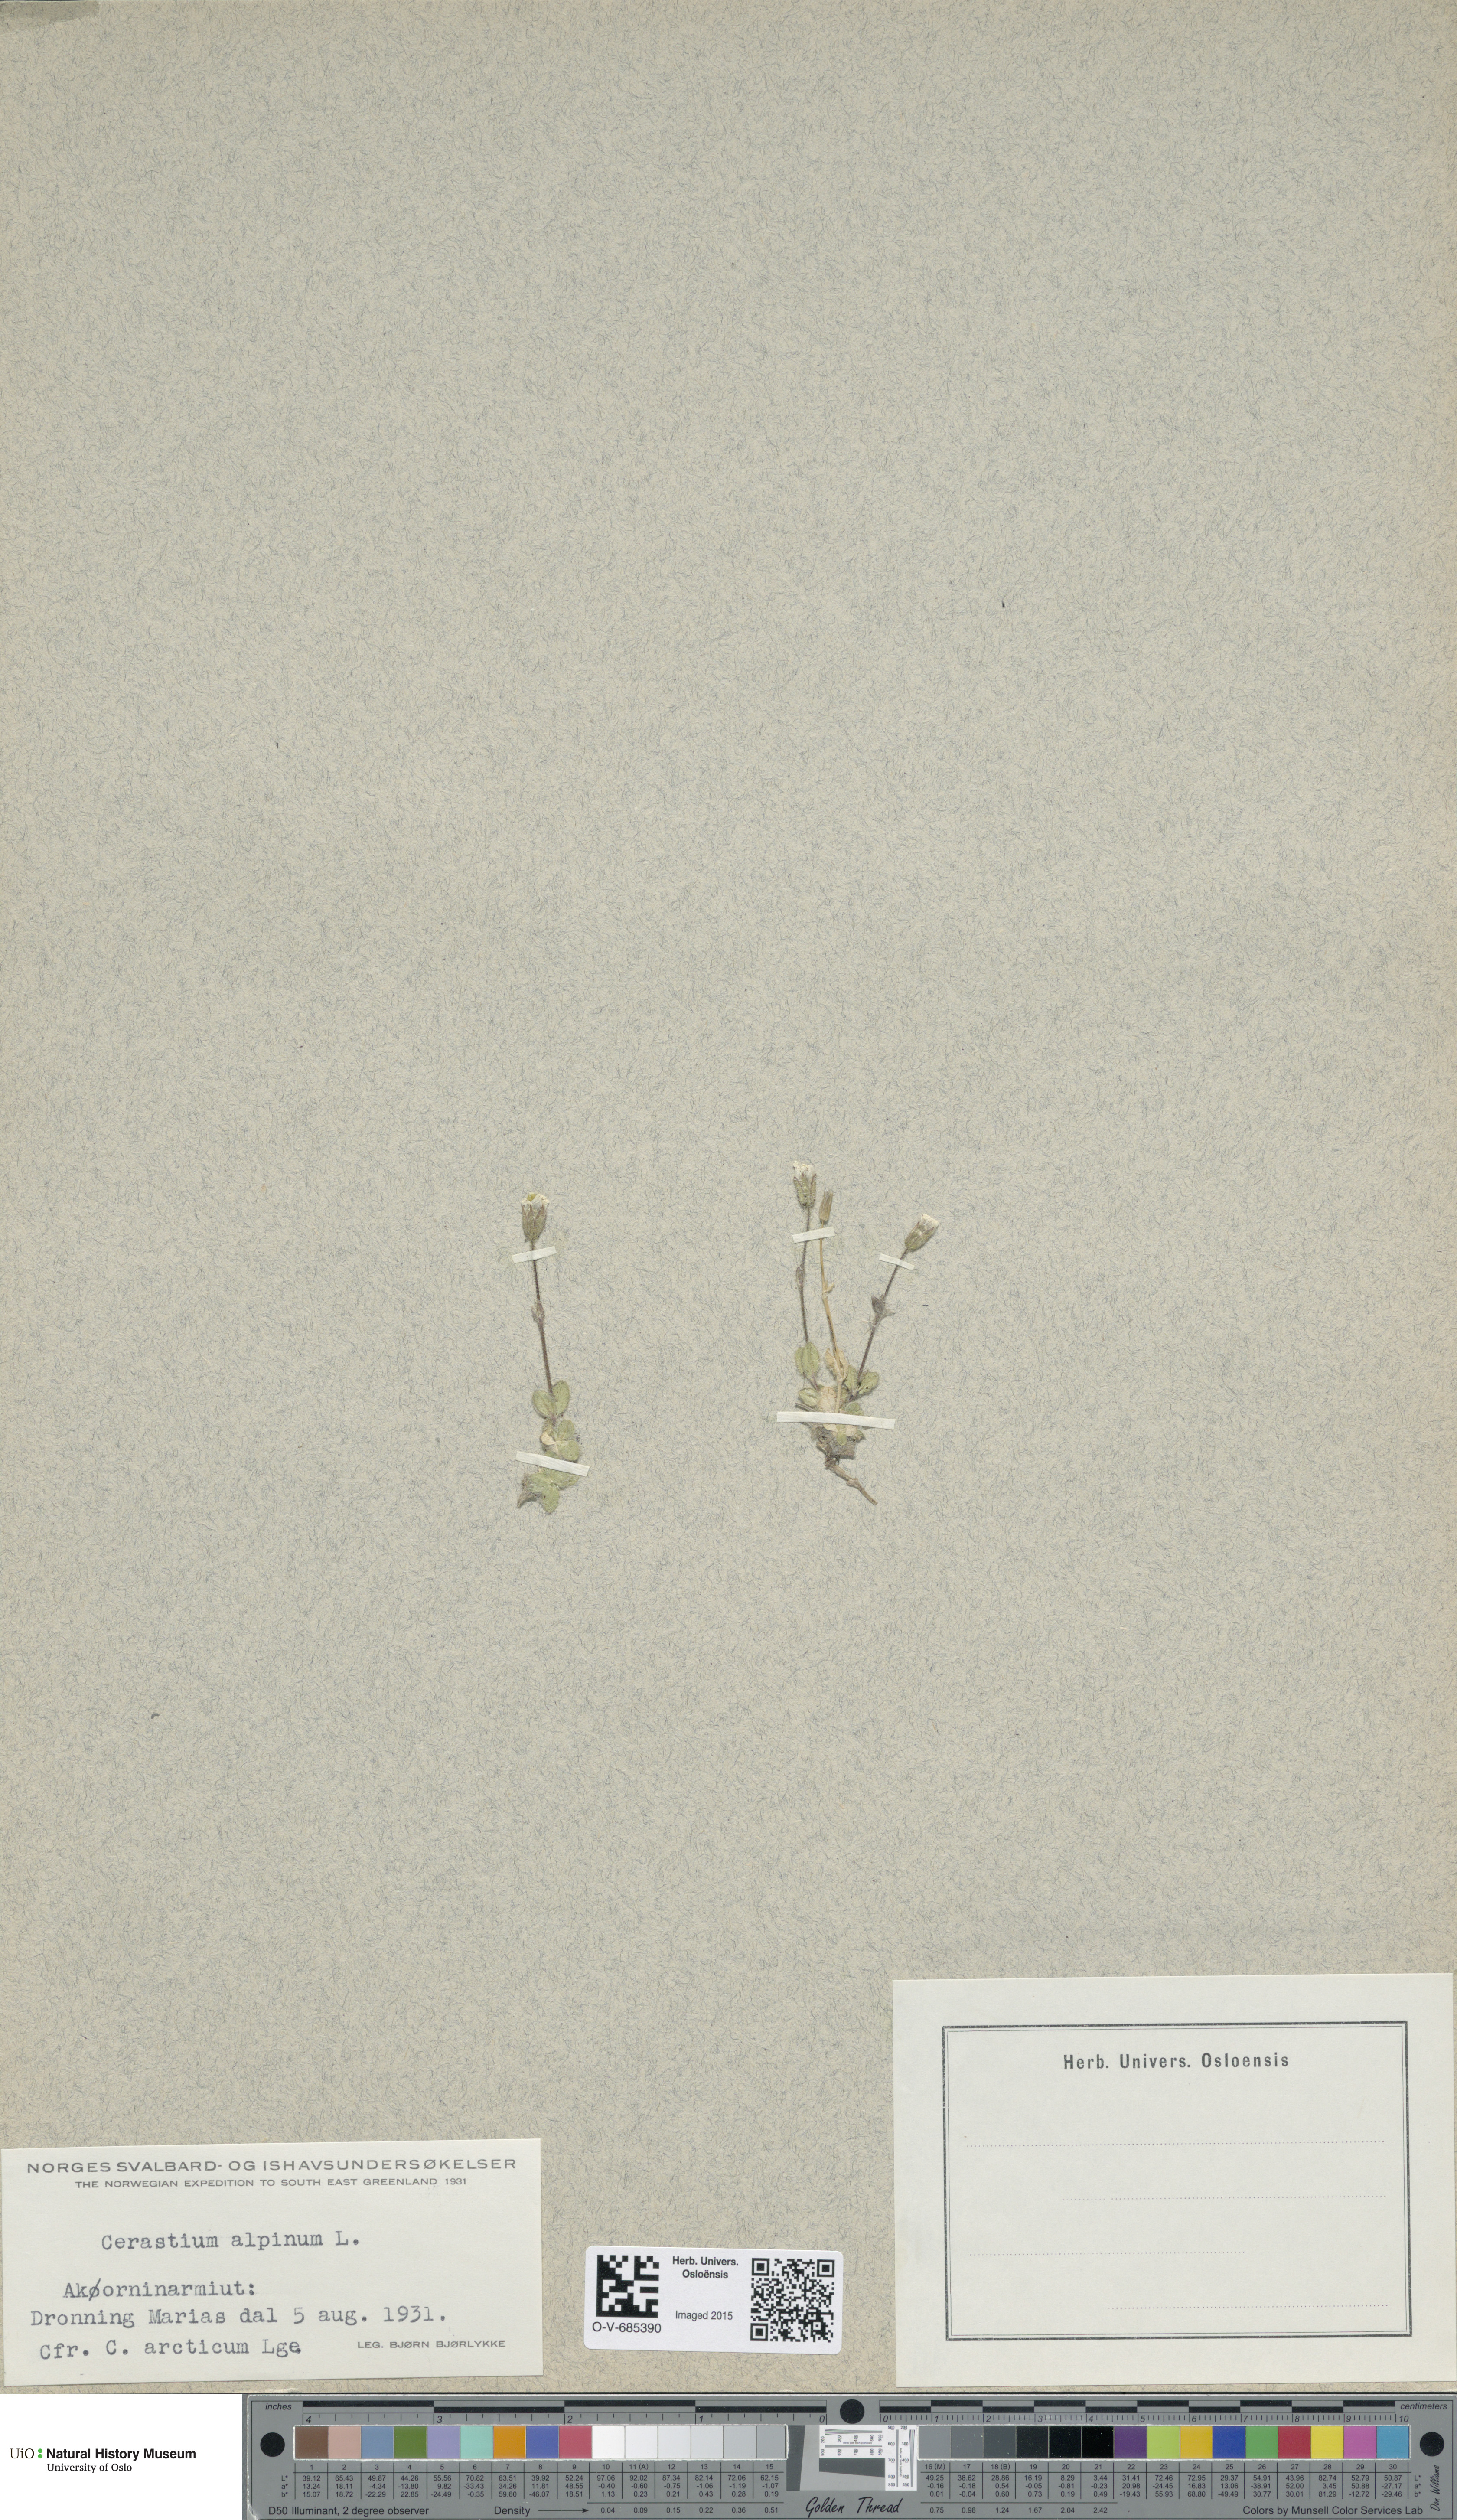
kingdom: Plantae
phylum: Tracheophyta
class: Magnoliopsida
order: Caryophyllales
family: Caryophyllaceae
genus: Cerastium
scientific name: Cerastium alpinum
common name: Alpine mouse-ear
